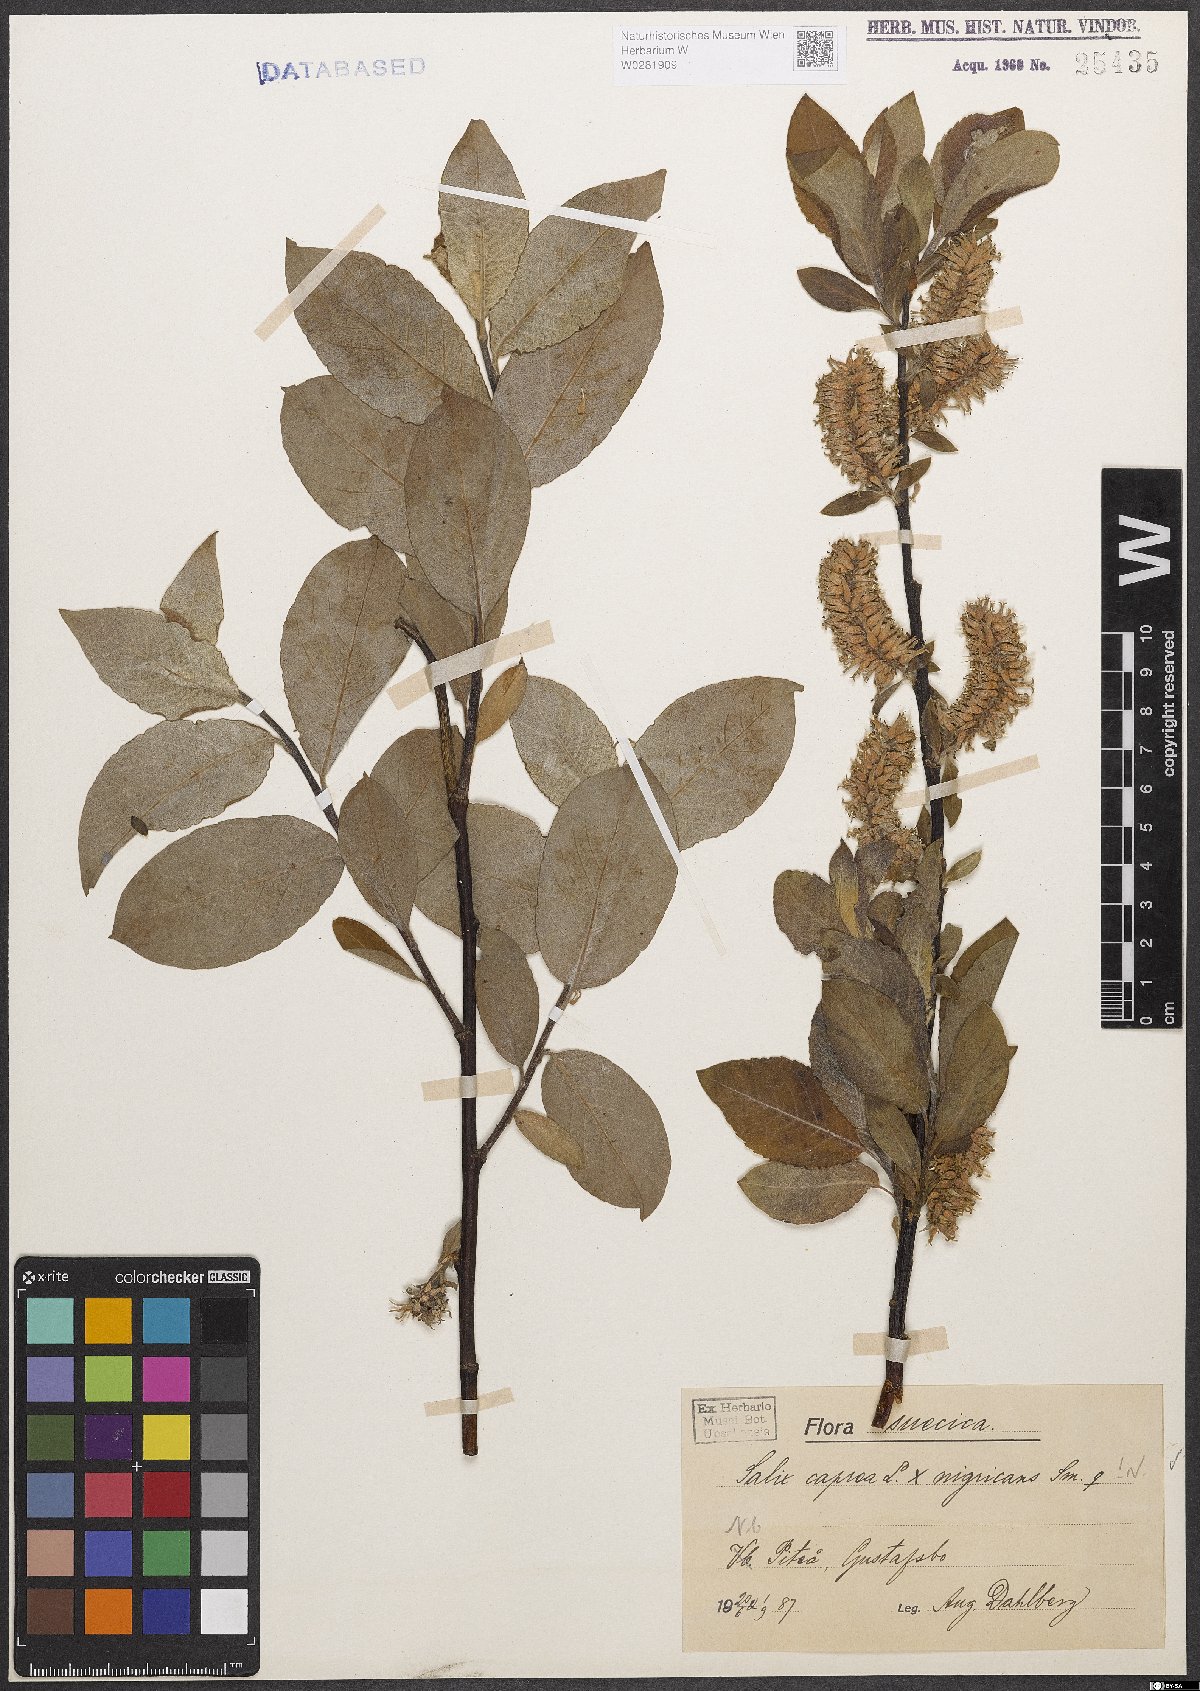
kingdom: Plantae
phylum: Tracheophyta
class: Magnoliopsida
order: Malpighiales
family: Salicaceae
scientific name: Salicaceae
